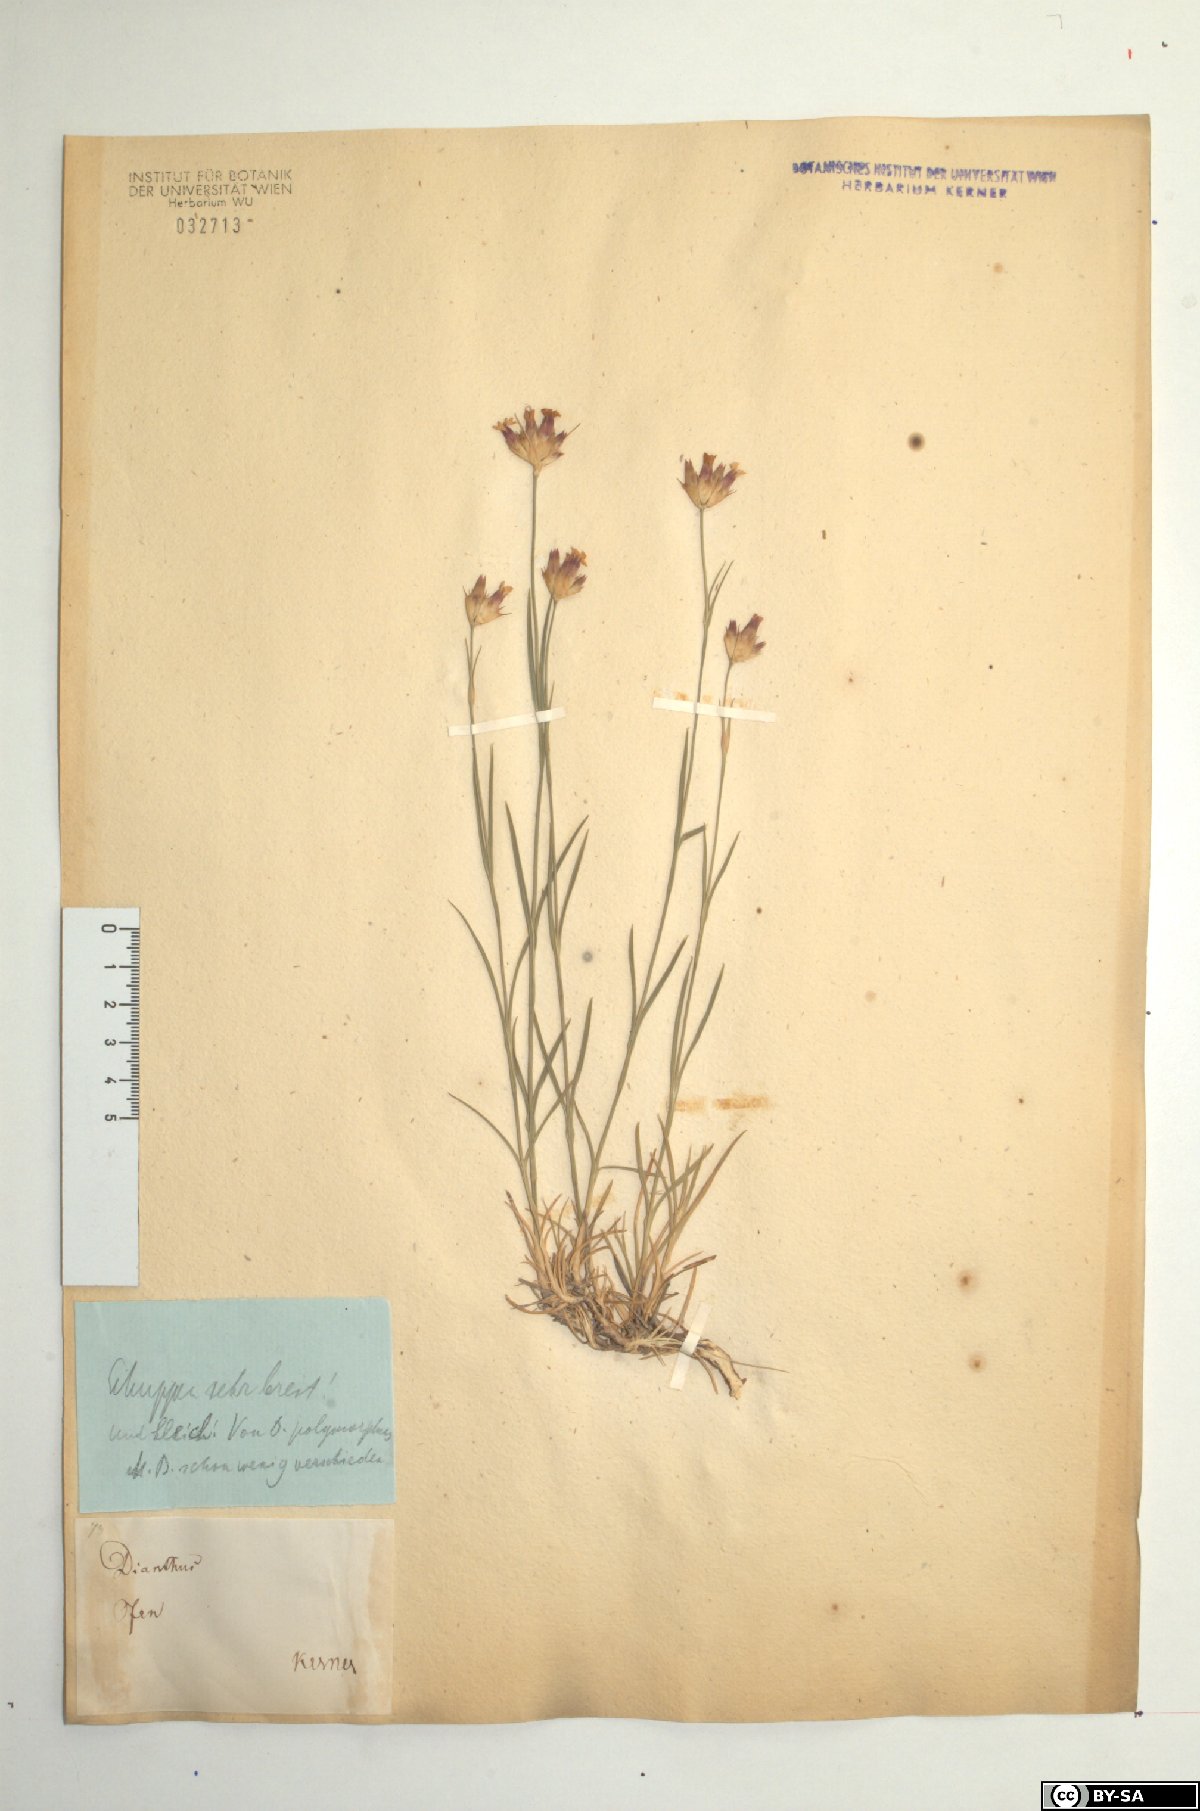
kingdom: Plantae
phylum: Tracheophyta
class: Magnoliopsida
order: Caryophyllales
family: Caryophyllaceae
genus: Dianthus
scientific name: Dianthus pontederae
